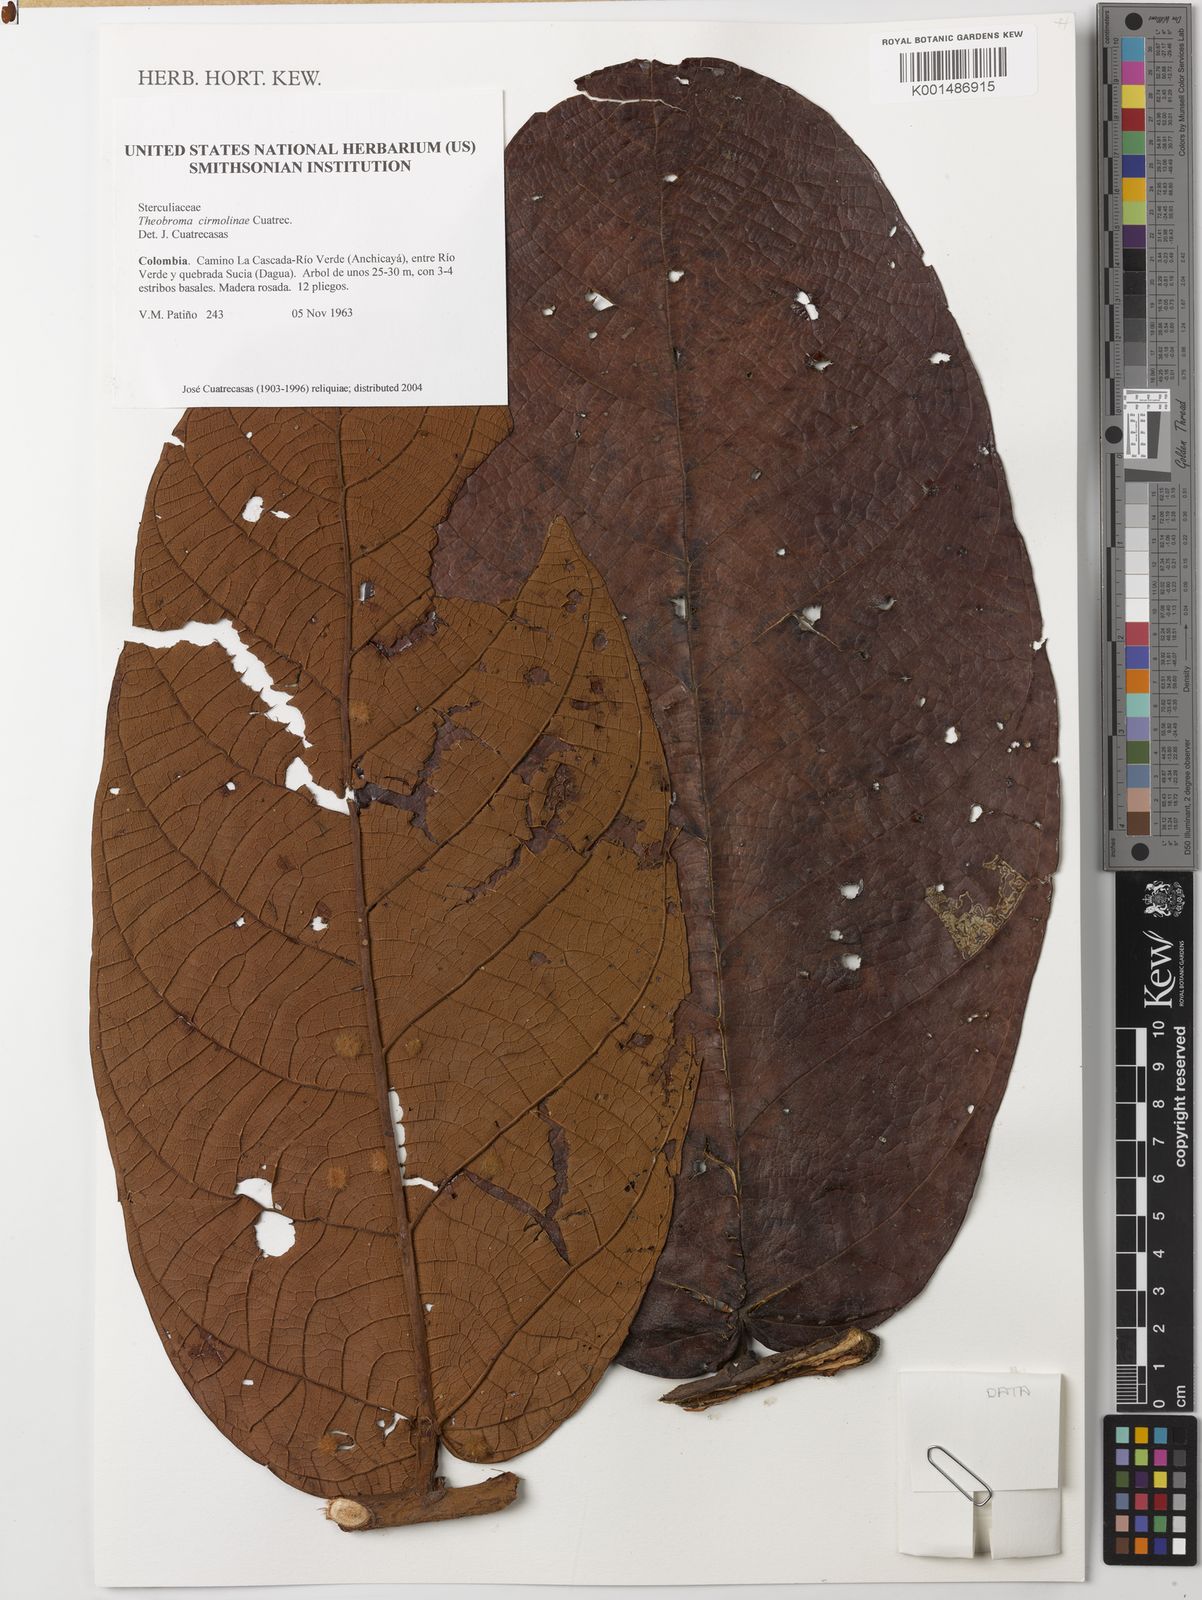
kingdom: Plantae
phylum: Tracheophyta
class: Magnoliopsida
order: Malvales
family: Malvaceae
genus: Theobroma
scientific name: Theobroma cirmolinae
